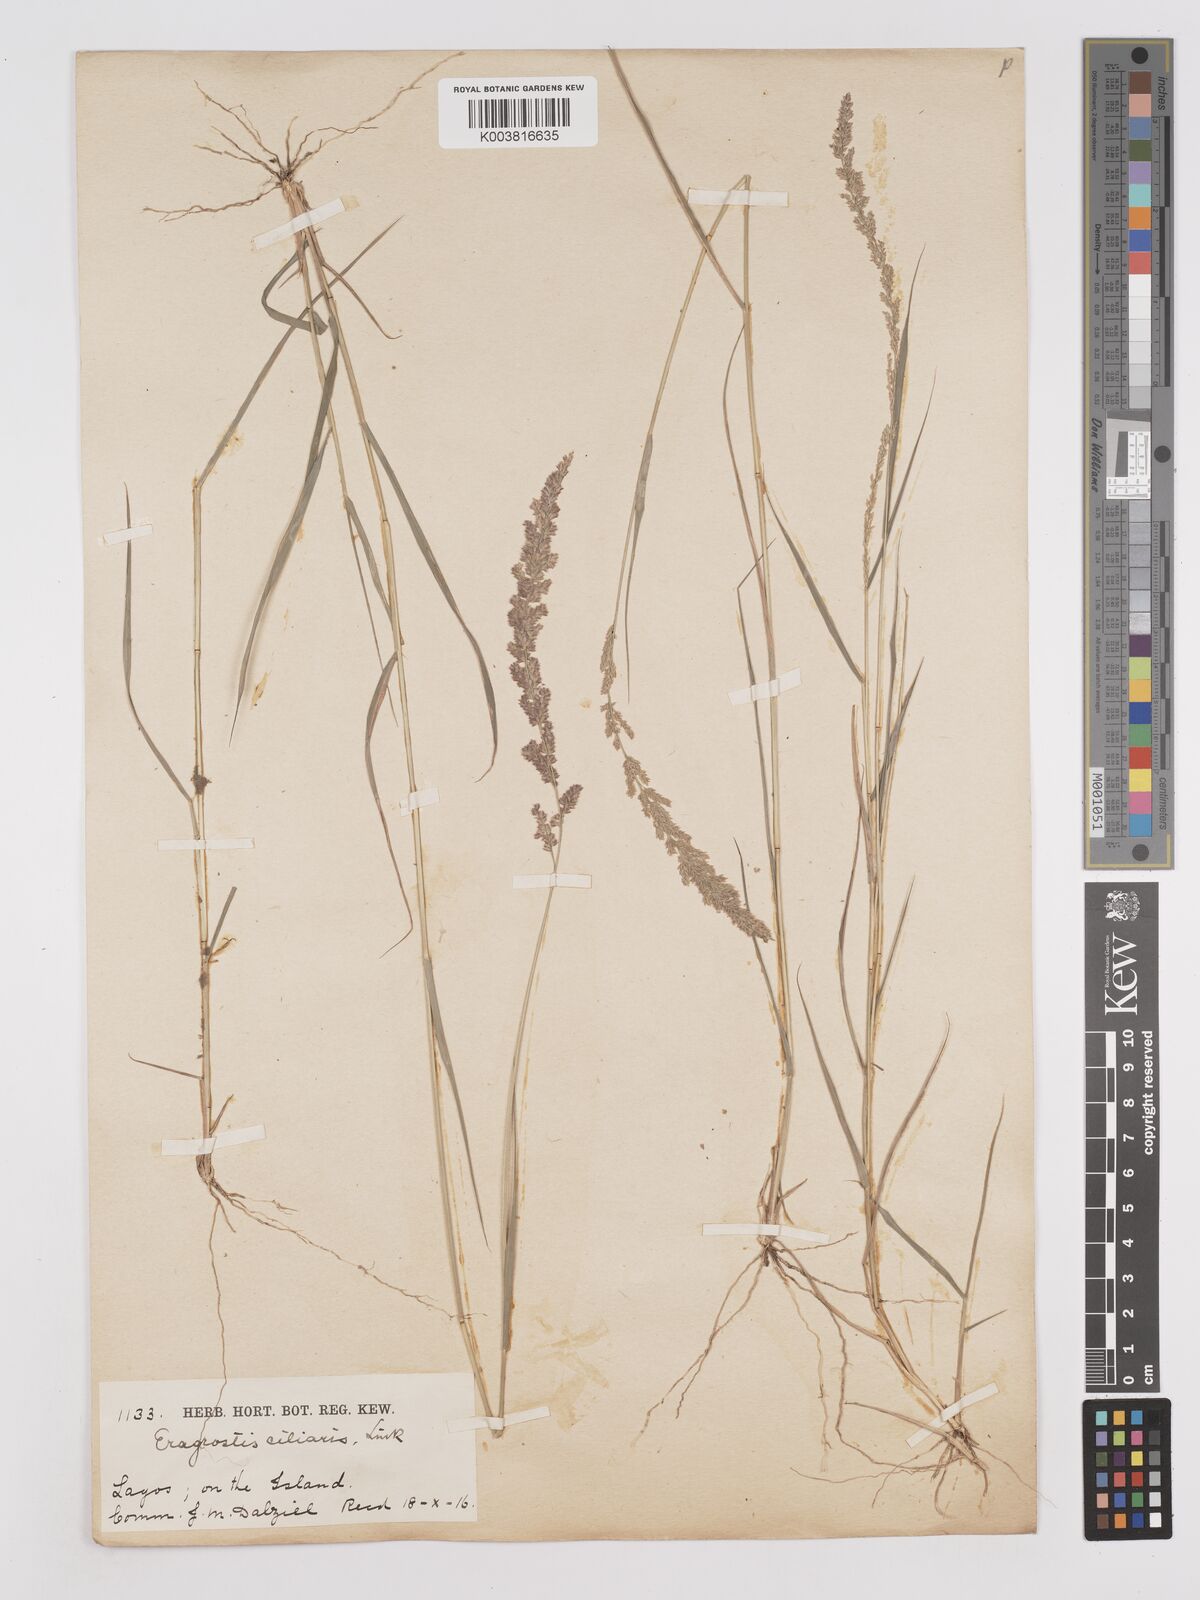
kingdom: Plantae
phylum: Tracheophyta
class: Liliopsida
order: Poales
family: Poaceae
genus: Eragrostis
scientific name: Eragrostis ciliaris
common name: Gophertail lovegrass
